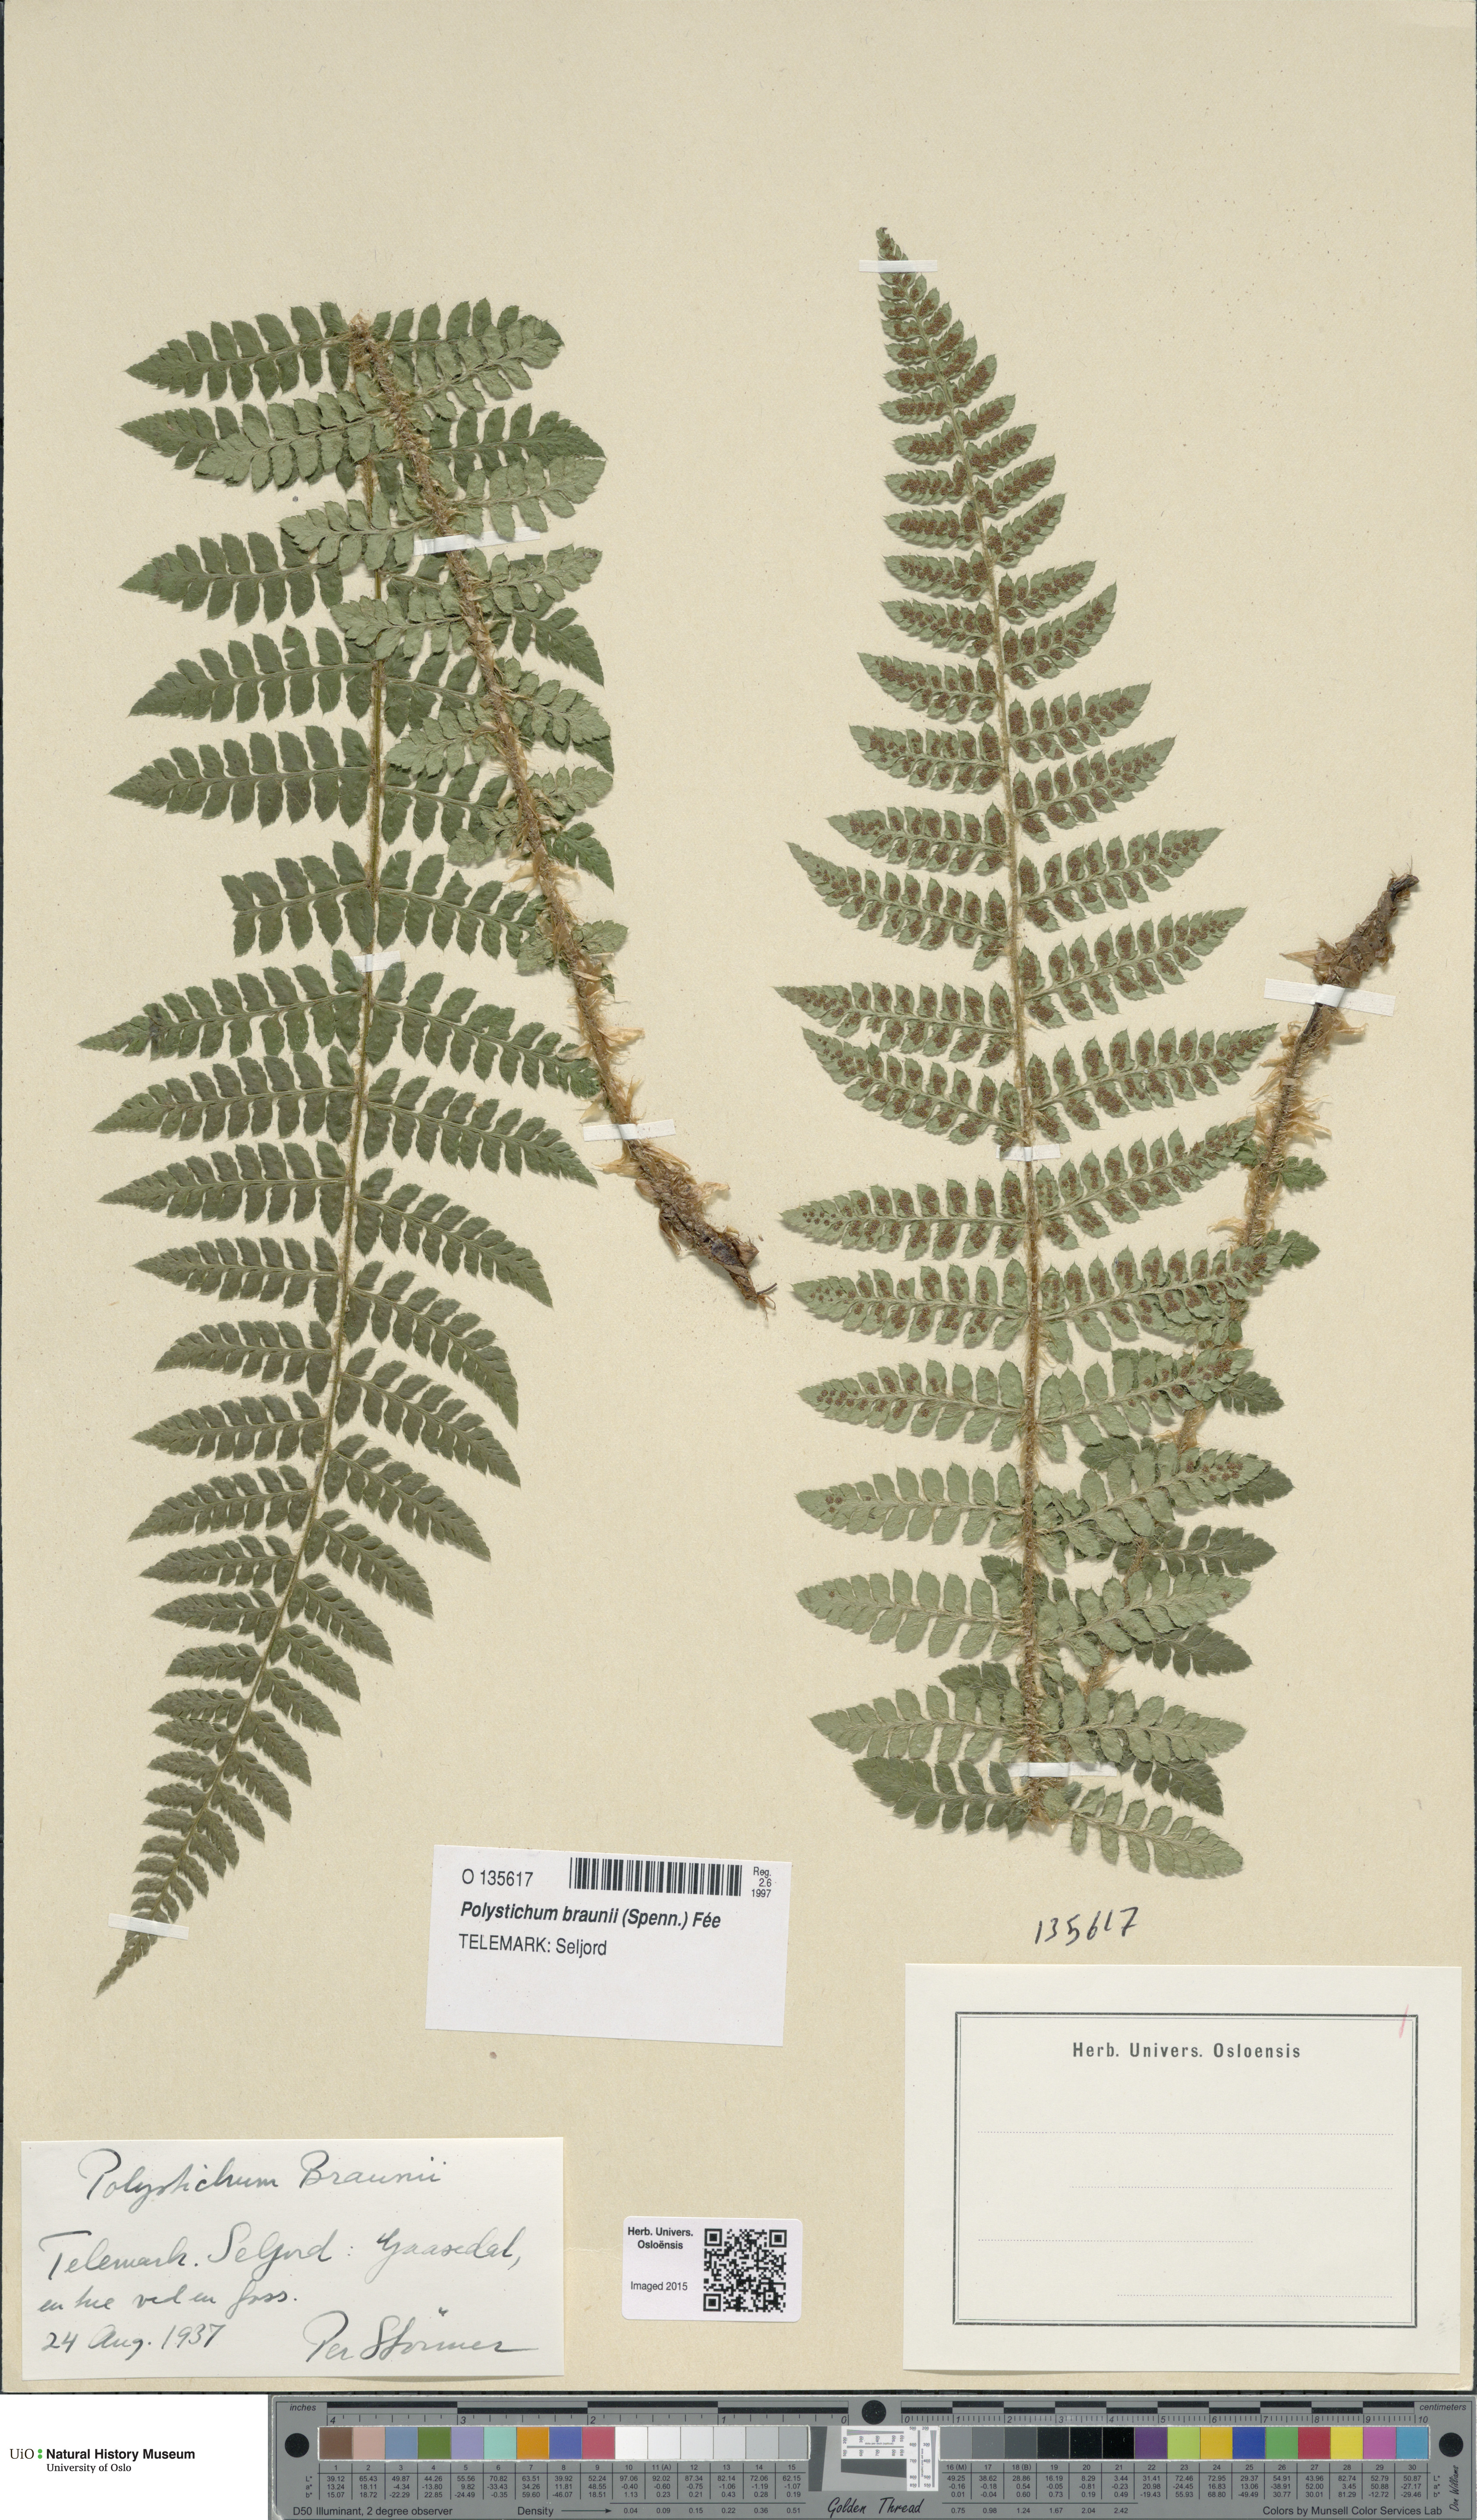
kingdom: Plantae
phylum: Tracheophyta
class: Polypodiopsida
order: Polypodiales
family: Dryopteridaceae
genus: Polystichum
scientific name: Polystichum braunii
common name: Braun's holly fern
